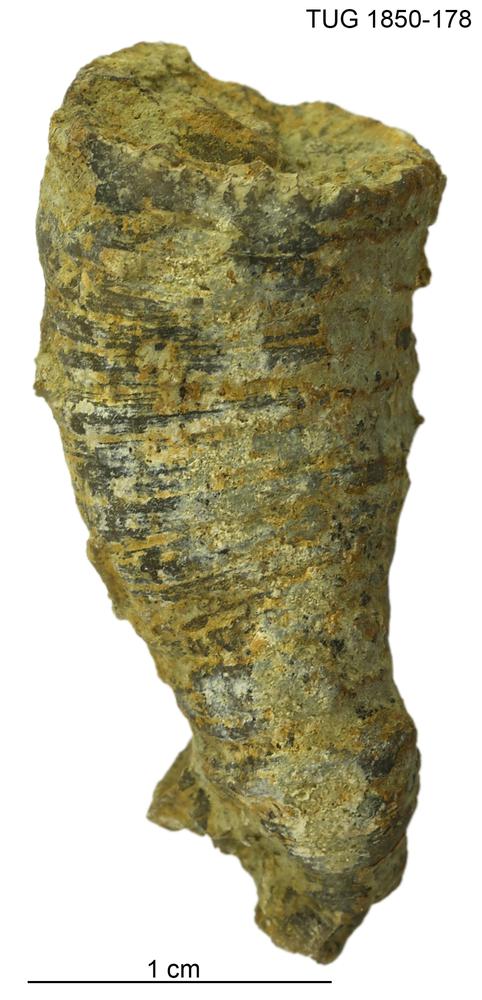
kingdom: Animalia
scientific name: Animalia
